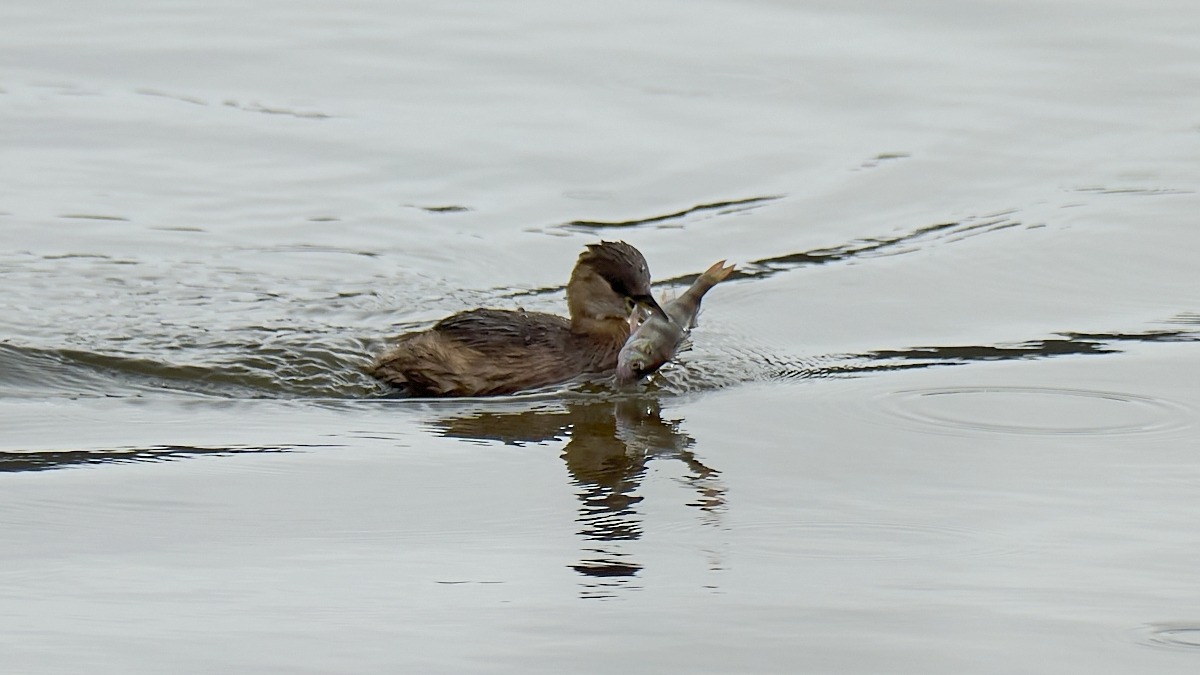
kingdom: Animalia
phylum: Chordata
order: Perciformes
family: Percidae
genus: Perca
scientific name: Perca fluviatilis
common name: Aborre
